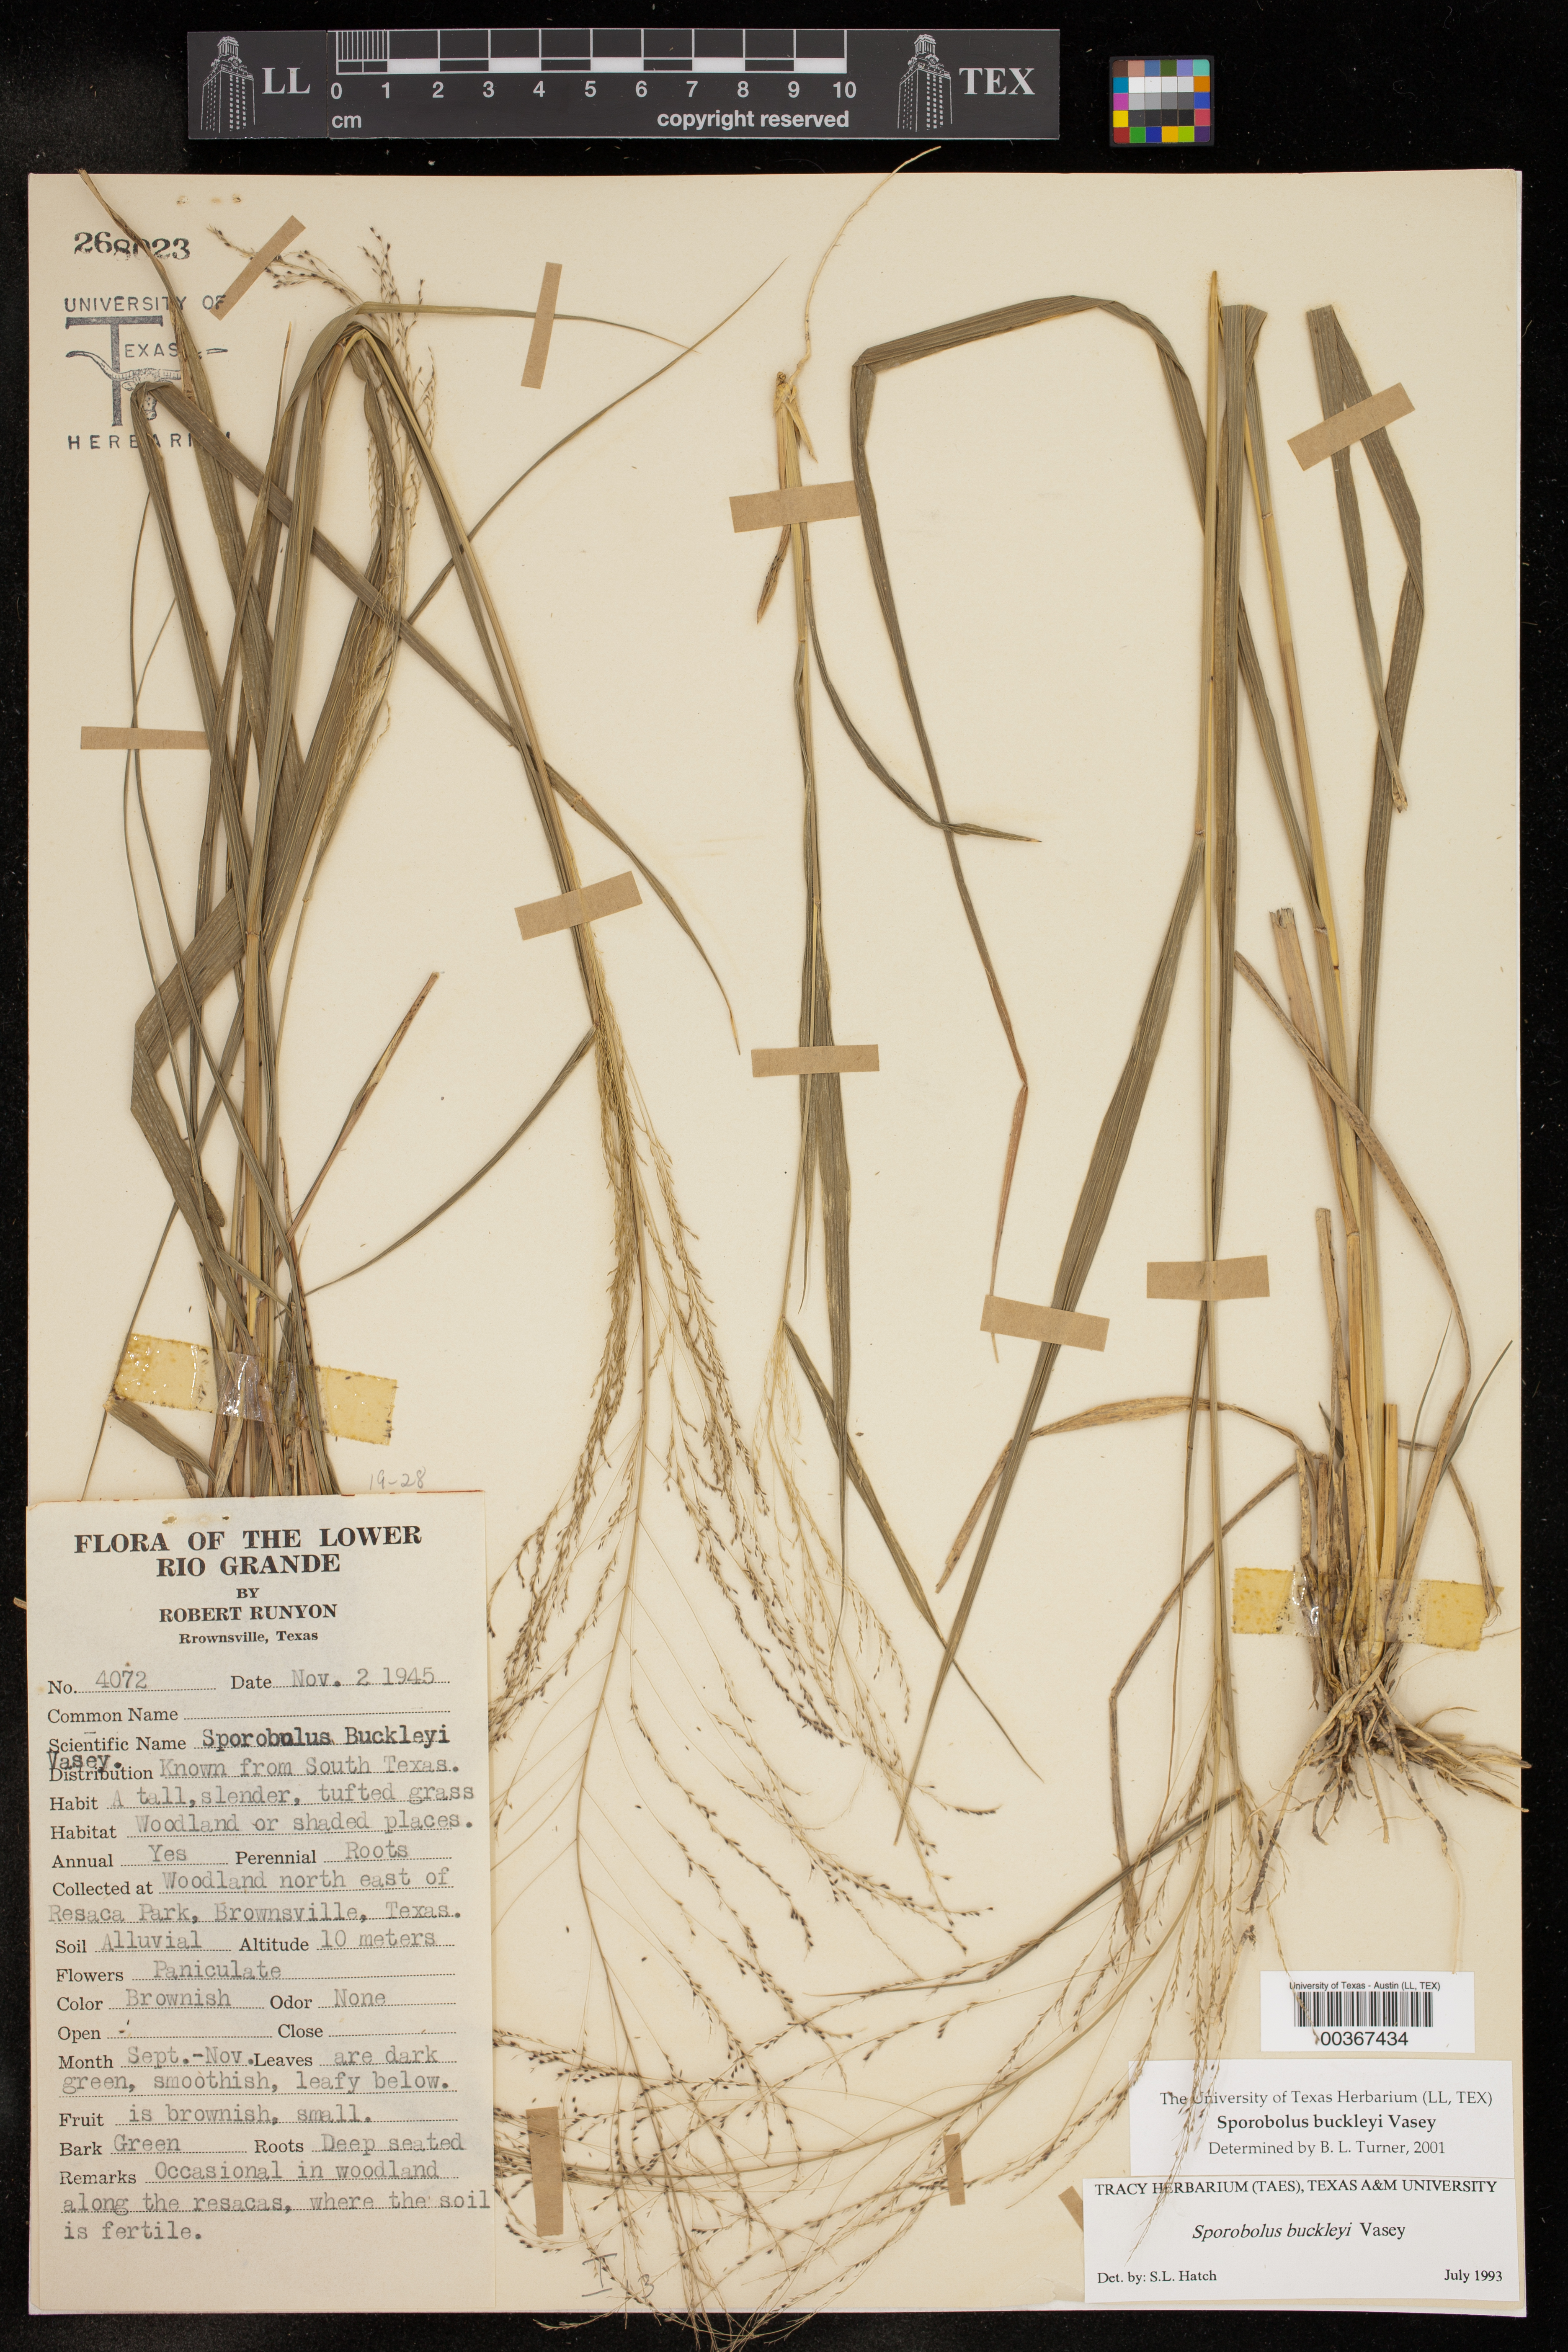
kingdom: Plantae
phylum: Tracheophyta
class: Liliopsida
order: Poales
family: Poaceae
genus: Sporobolus
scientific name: Sporobolus buckleyi
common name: Buckley's dropseed
